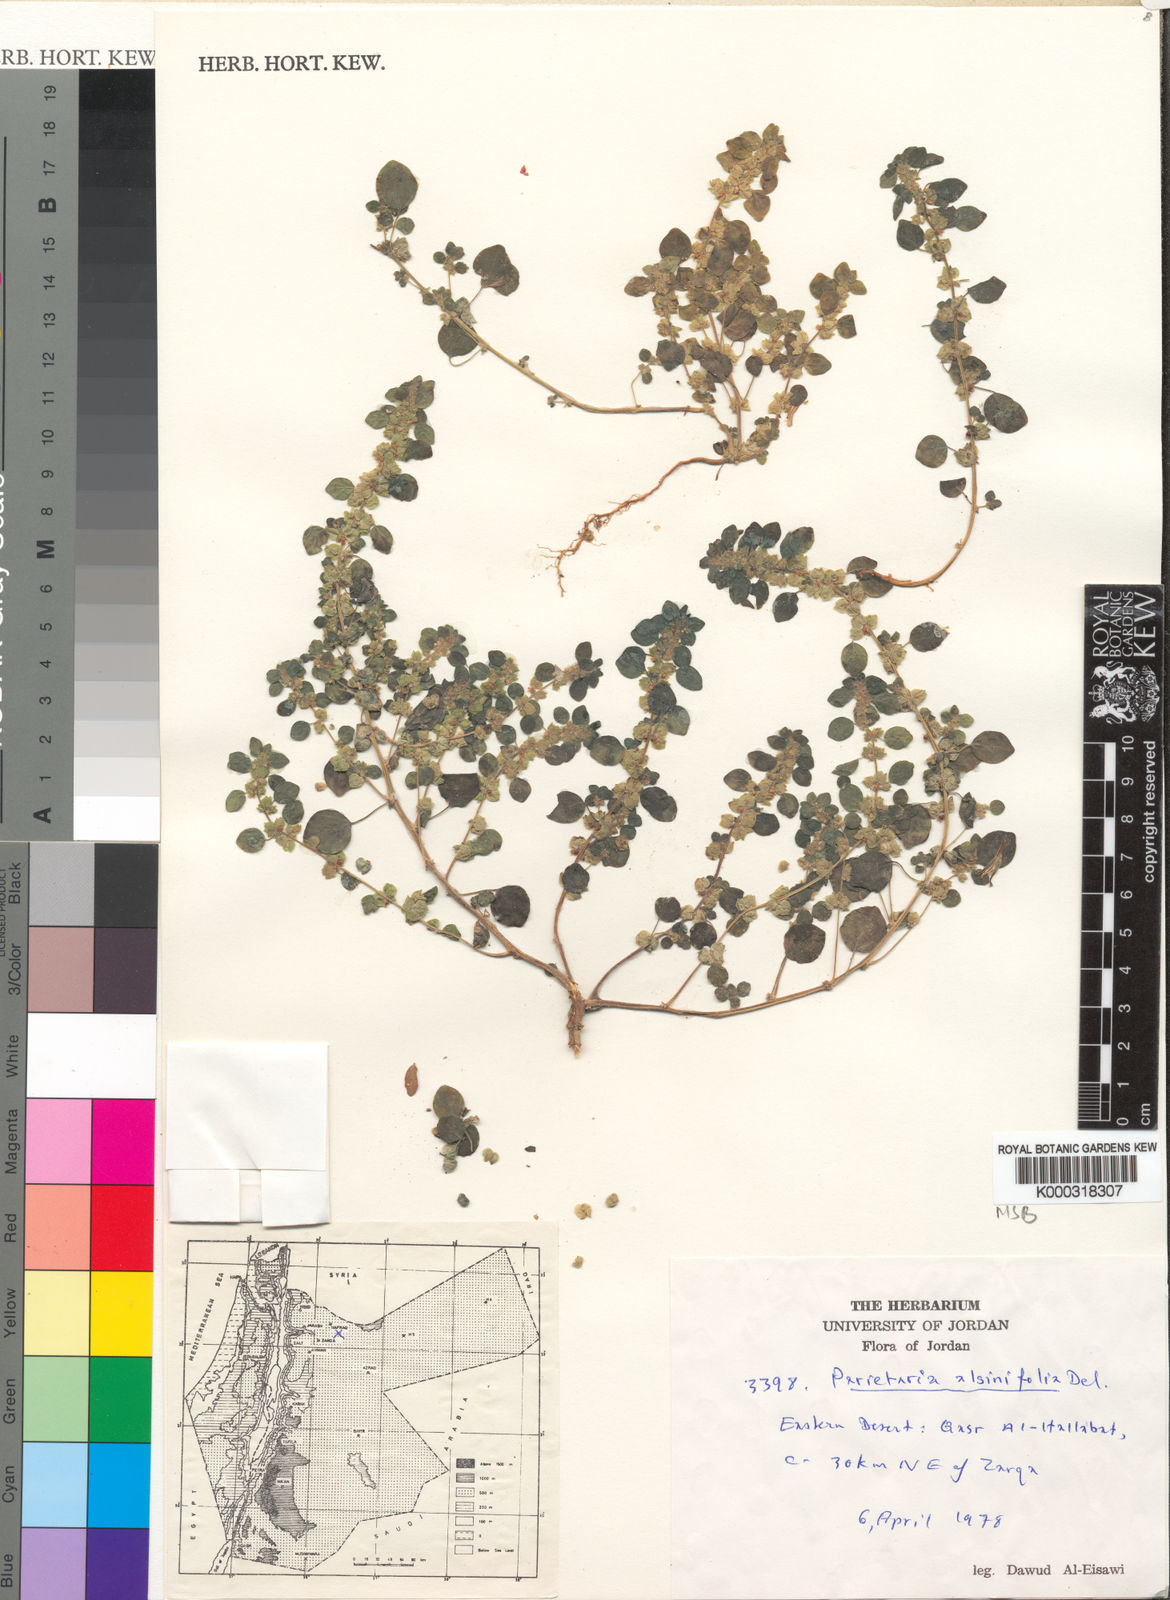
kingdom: Plantae
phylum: Tracheophyta
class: Magnoliopsida
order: Rosales
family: Urticaceae
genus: Parietaria
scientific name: Parietaria
